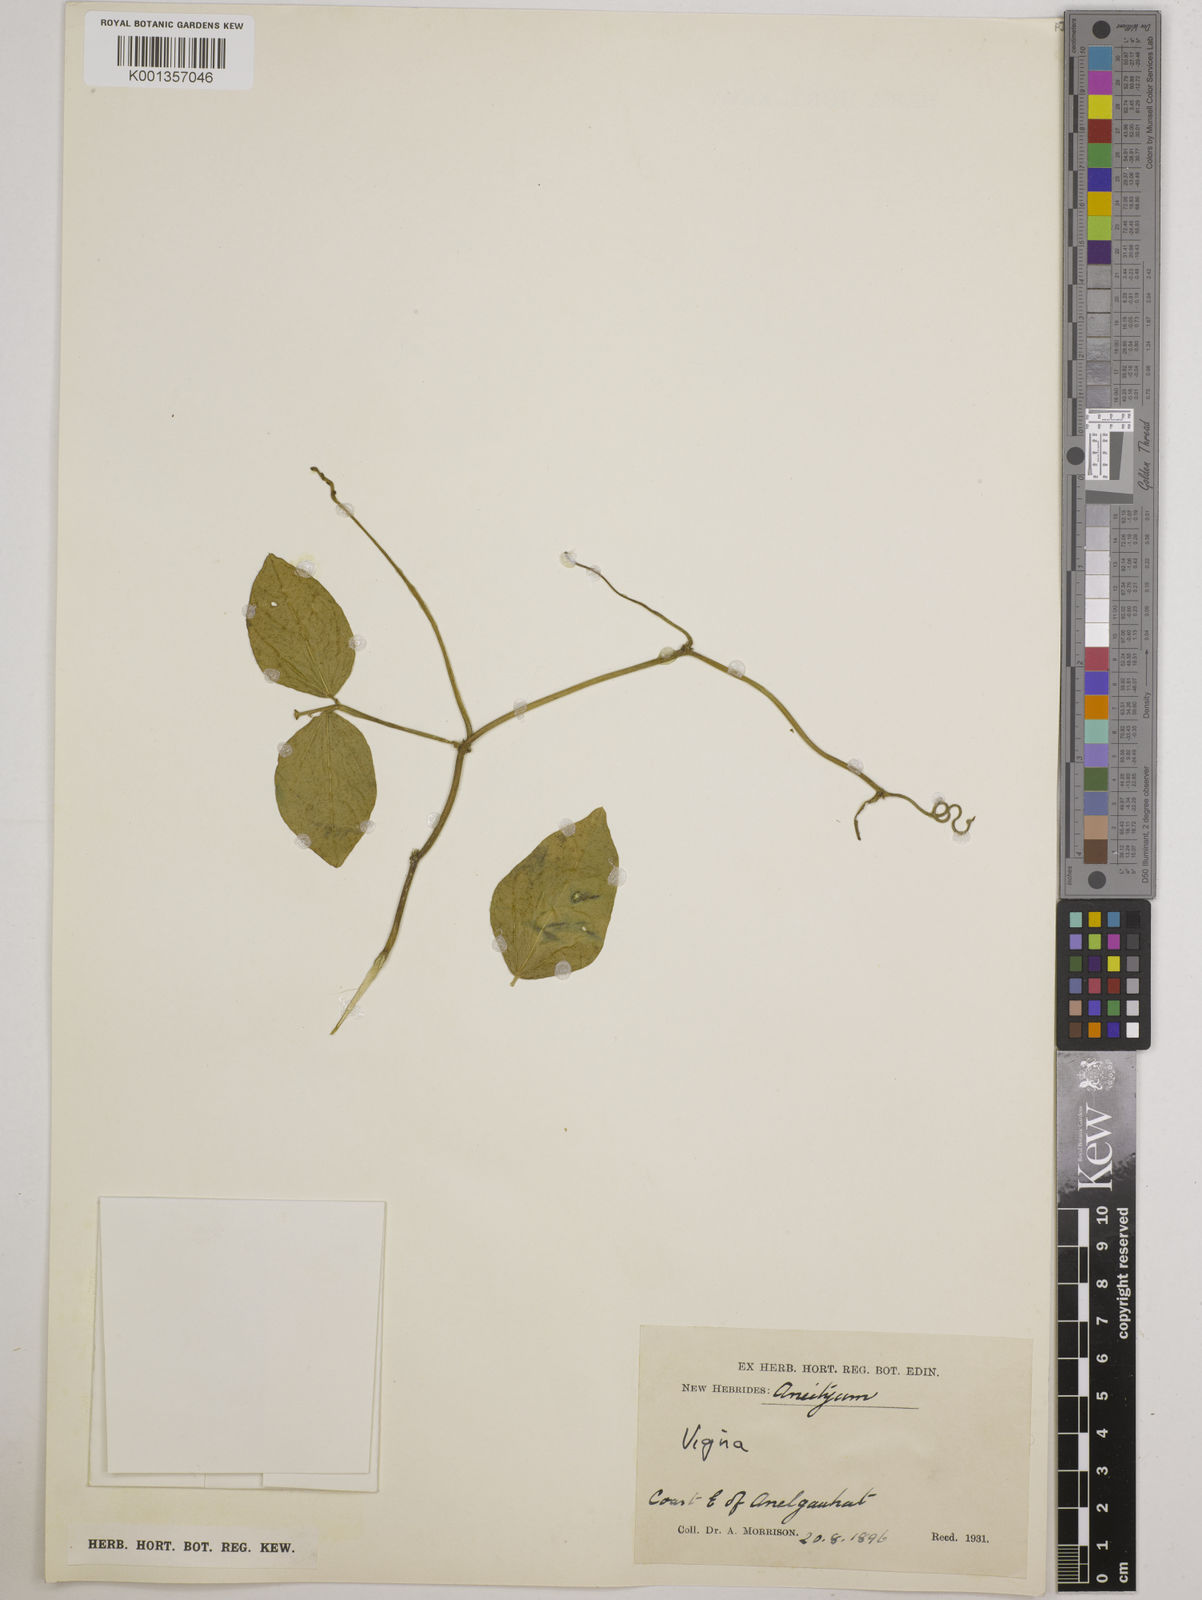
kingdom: Plantae
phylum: Tracheophyta
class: Magnoliopsida
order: Fabales
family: Fabaceae
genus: Vigna
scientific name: Vigna
